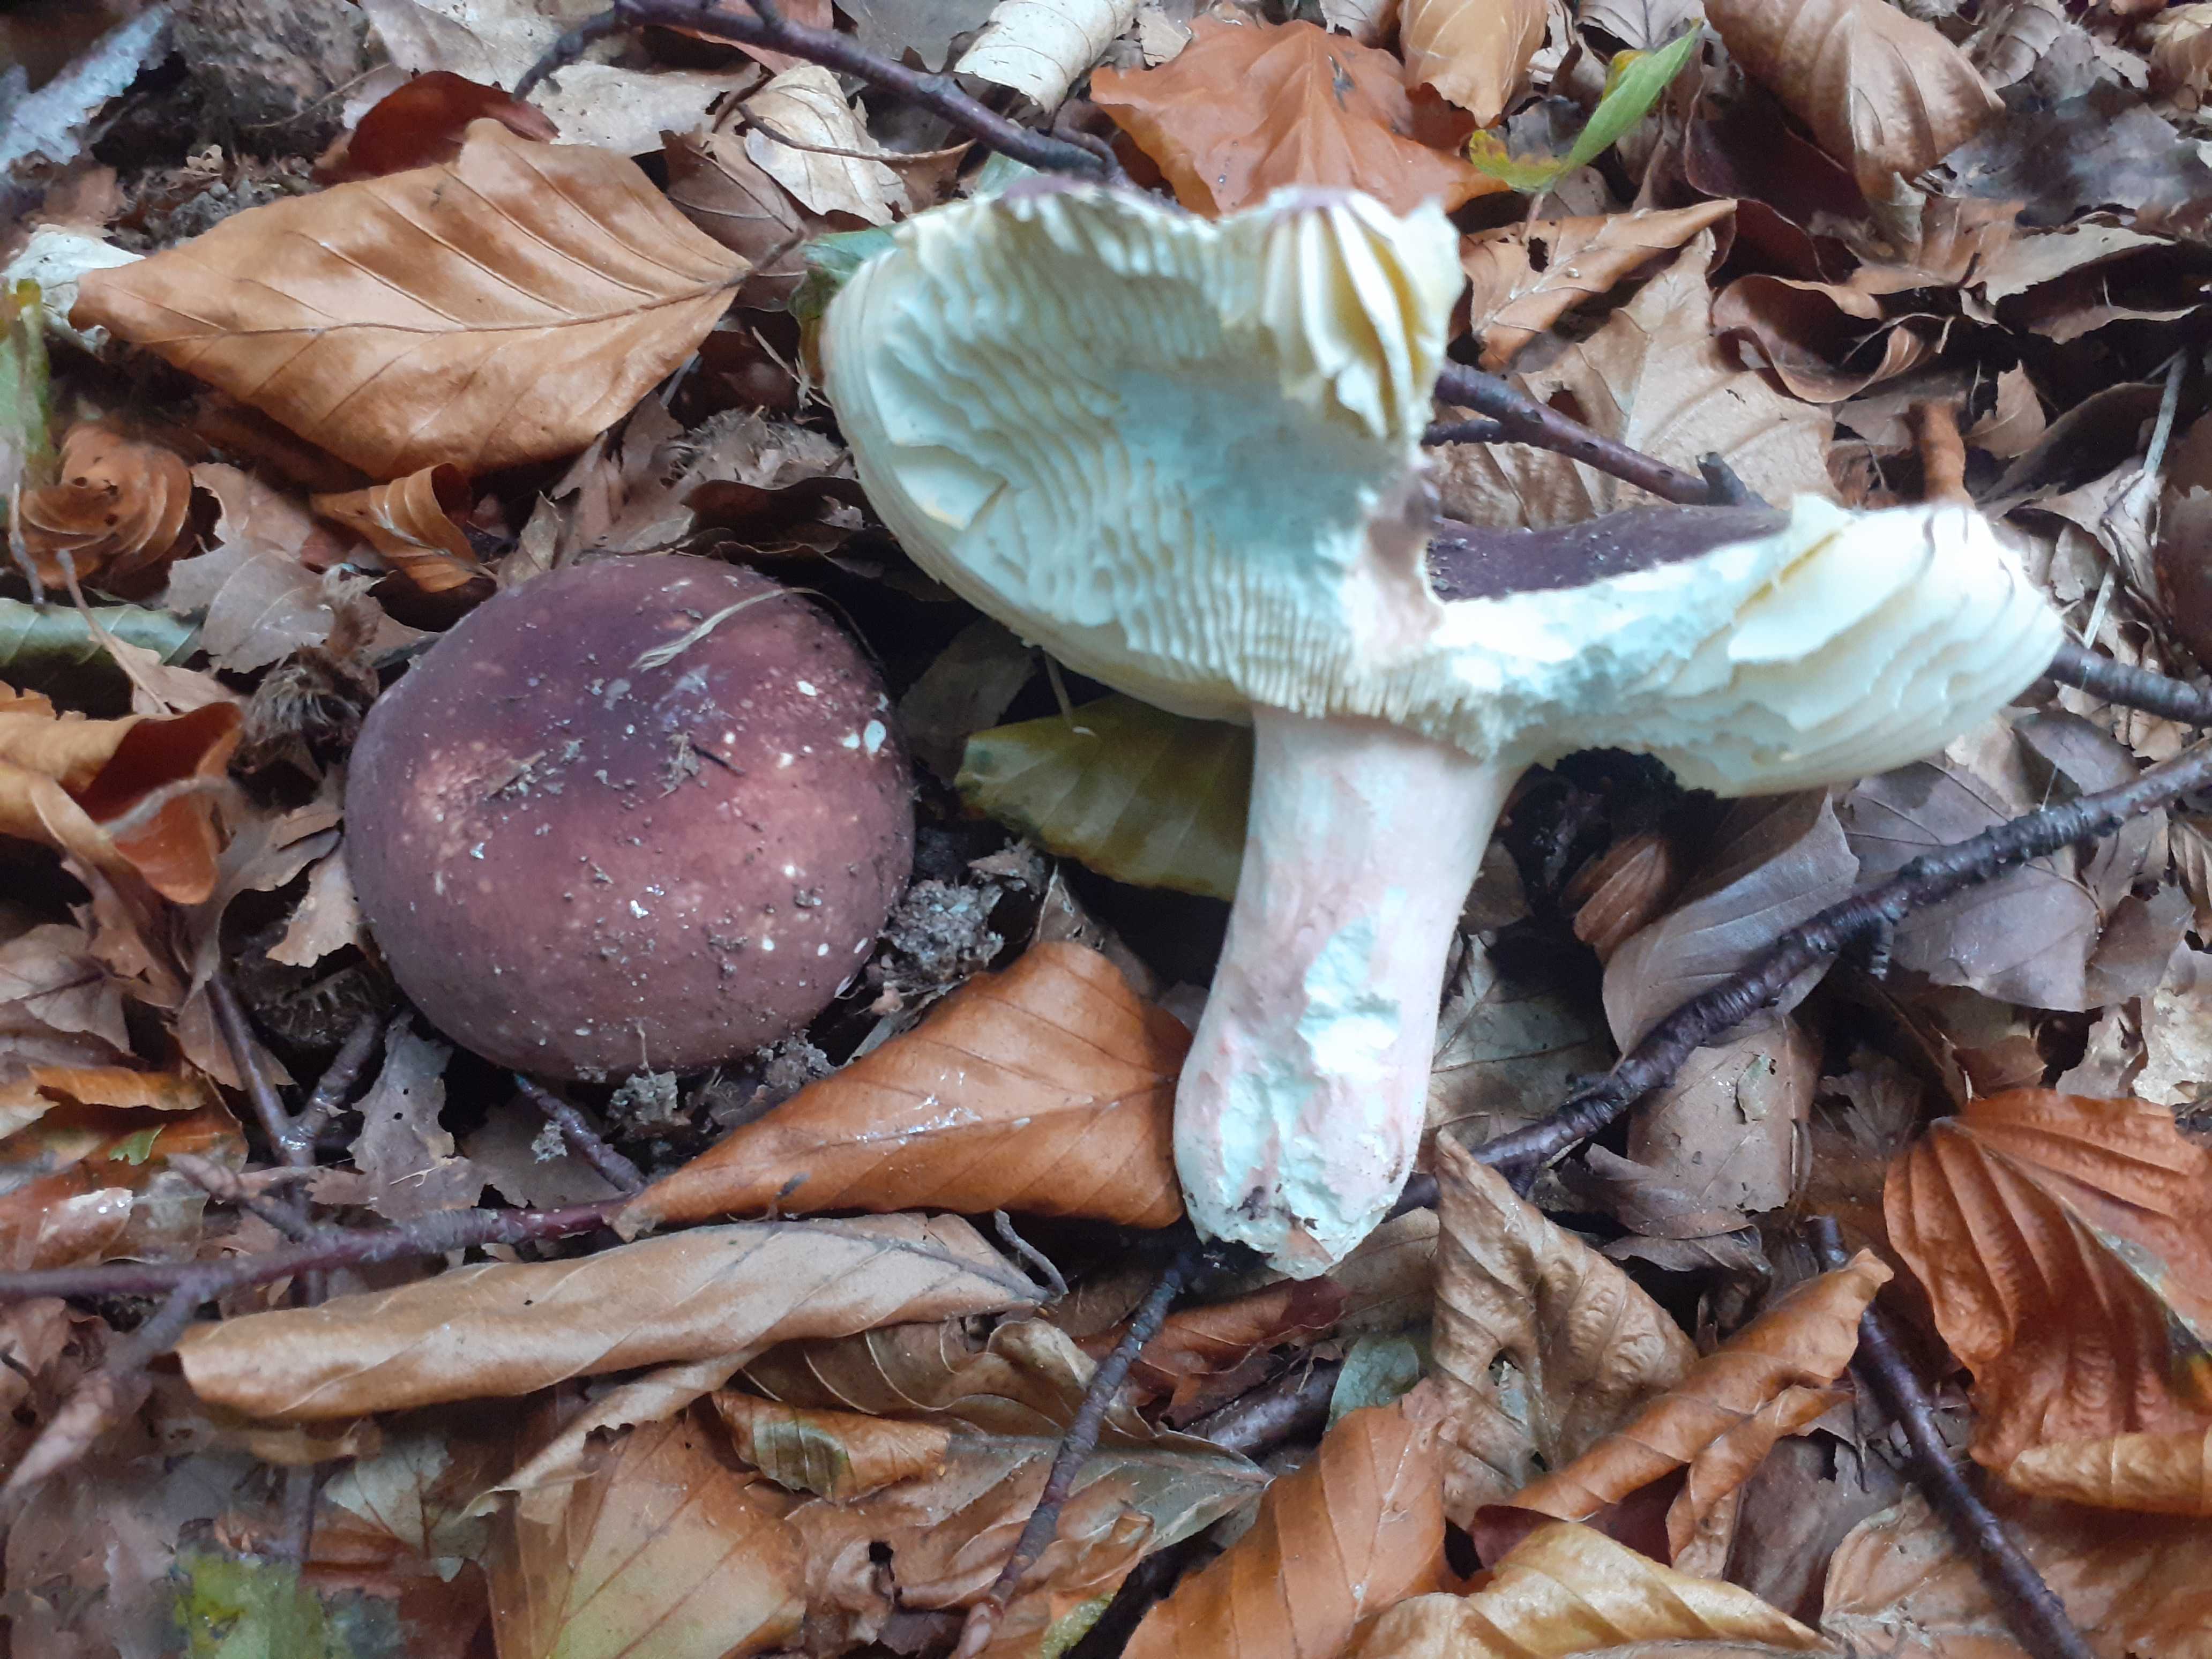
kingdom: Fungi
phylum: Basidiomycota
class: Agaricomycetes
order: Russulales
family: Russulaceae
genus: Russula
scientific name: Russula olivacea
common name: stor skørhat
